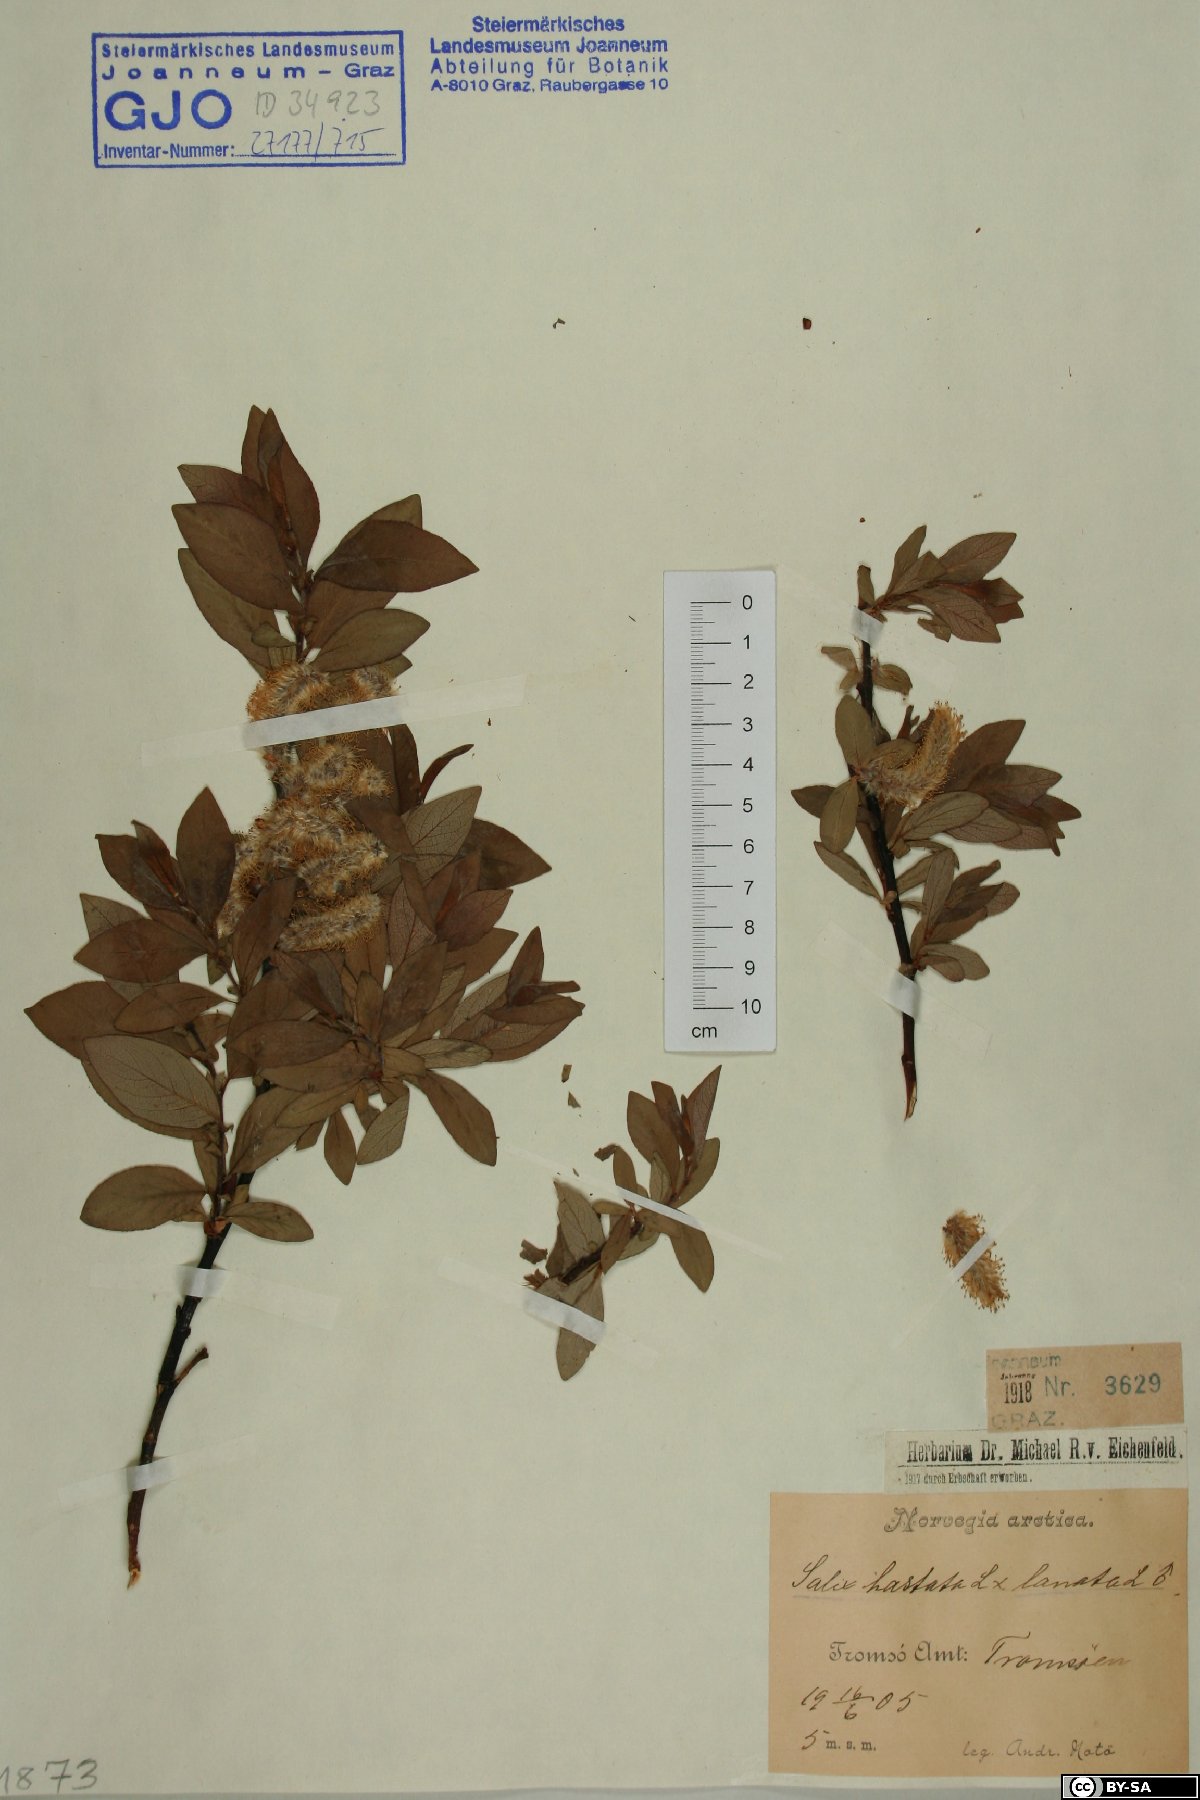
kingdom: Plantae
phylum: Tracheophyta
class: Magnoliopsida
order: Malpighiales
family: Salicaceae
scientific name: Salicaceae
